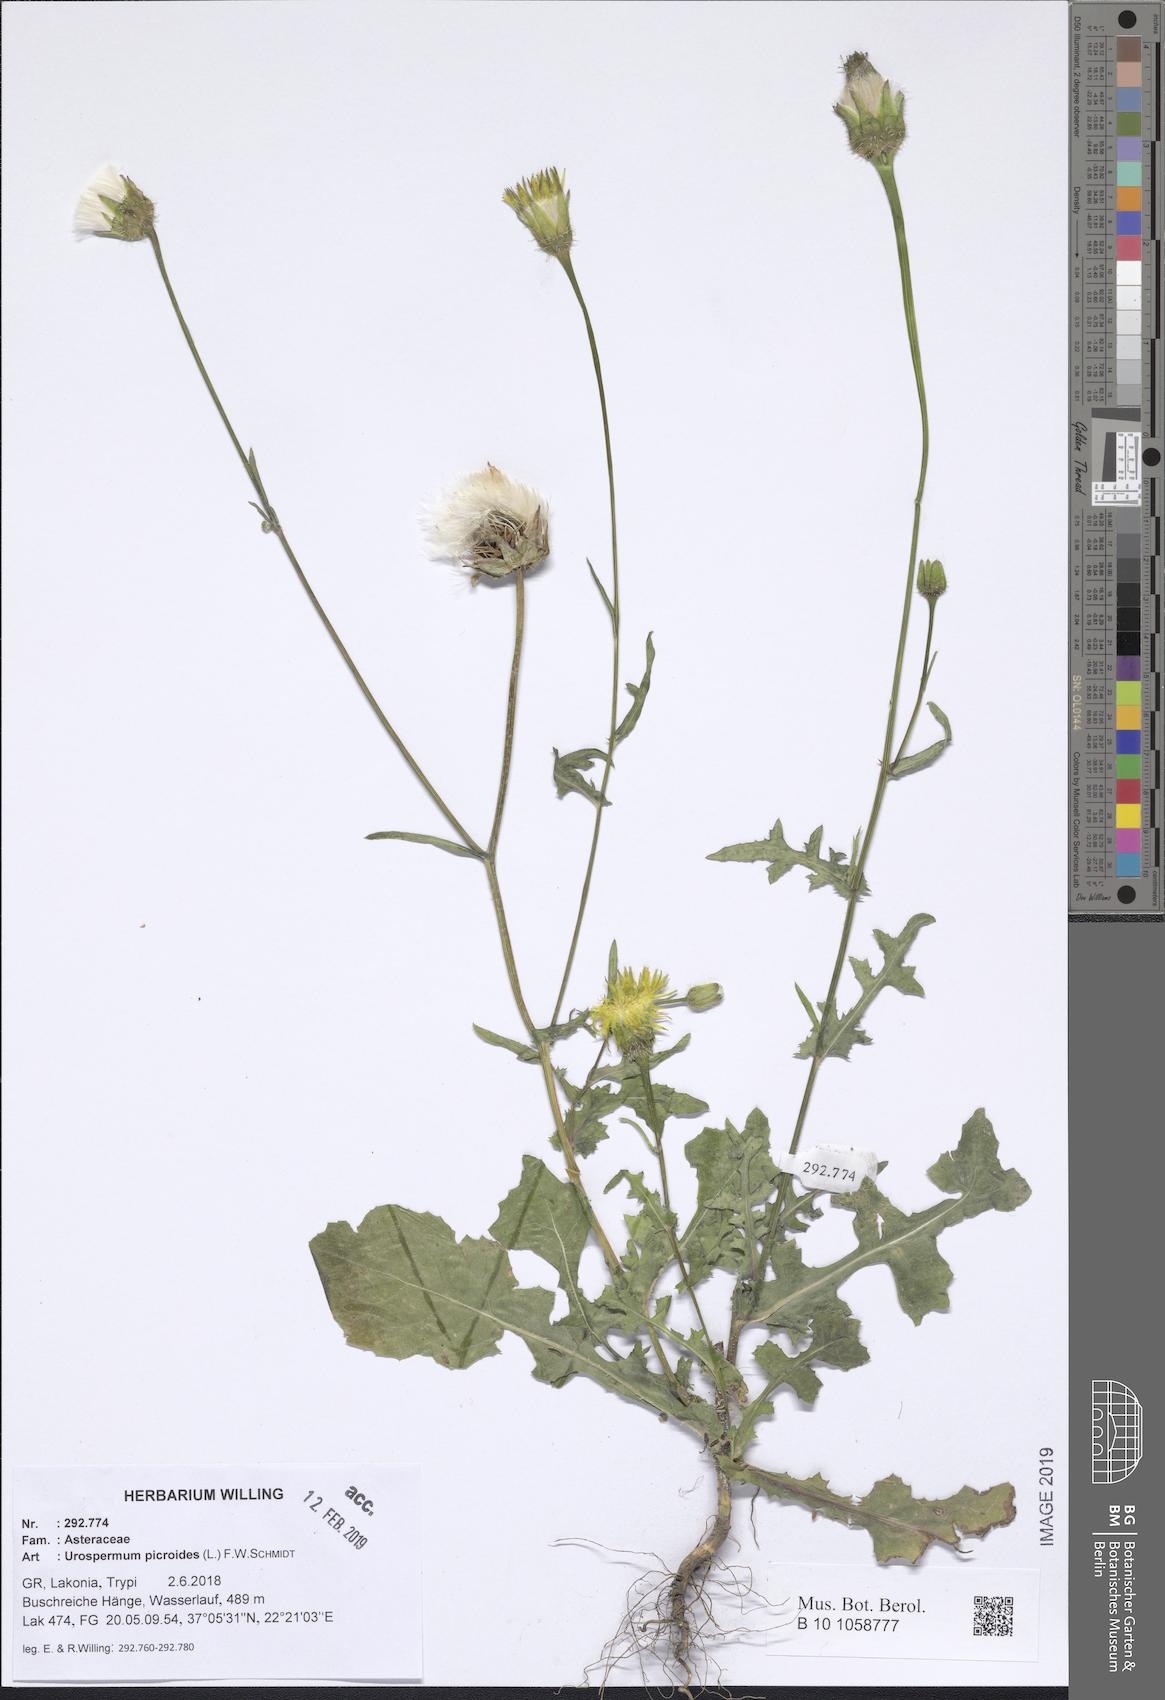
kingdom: Plantae
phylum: Tracheophyta
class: Magnoliopsida
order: Asterales
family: Asteraceae
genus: Urospermum
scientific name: Urospermum picroides
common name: False hawkbit
